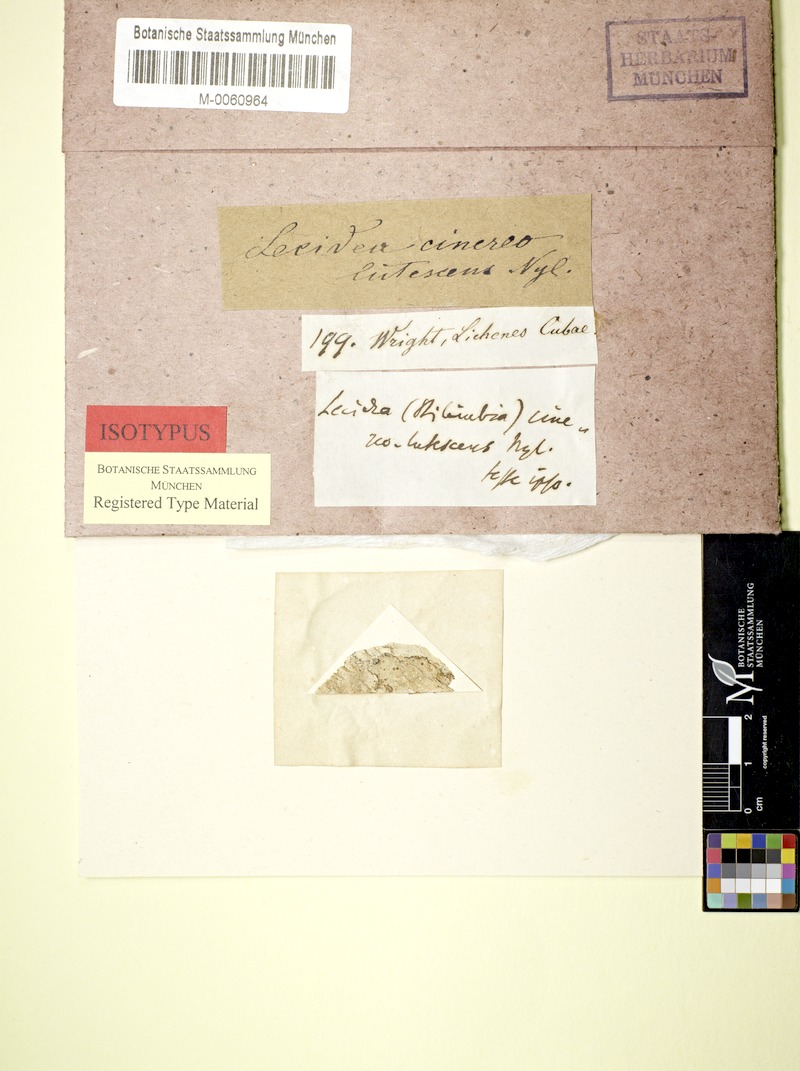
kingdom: Fungi
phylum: Ascomycota
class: Lecanoromycetes
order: Lecideales
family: Lecideaceae
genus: Lecidea
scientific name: Lecidea
